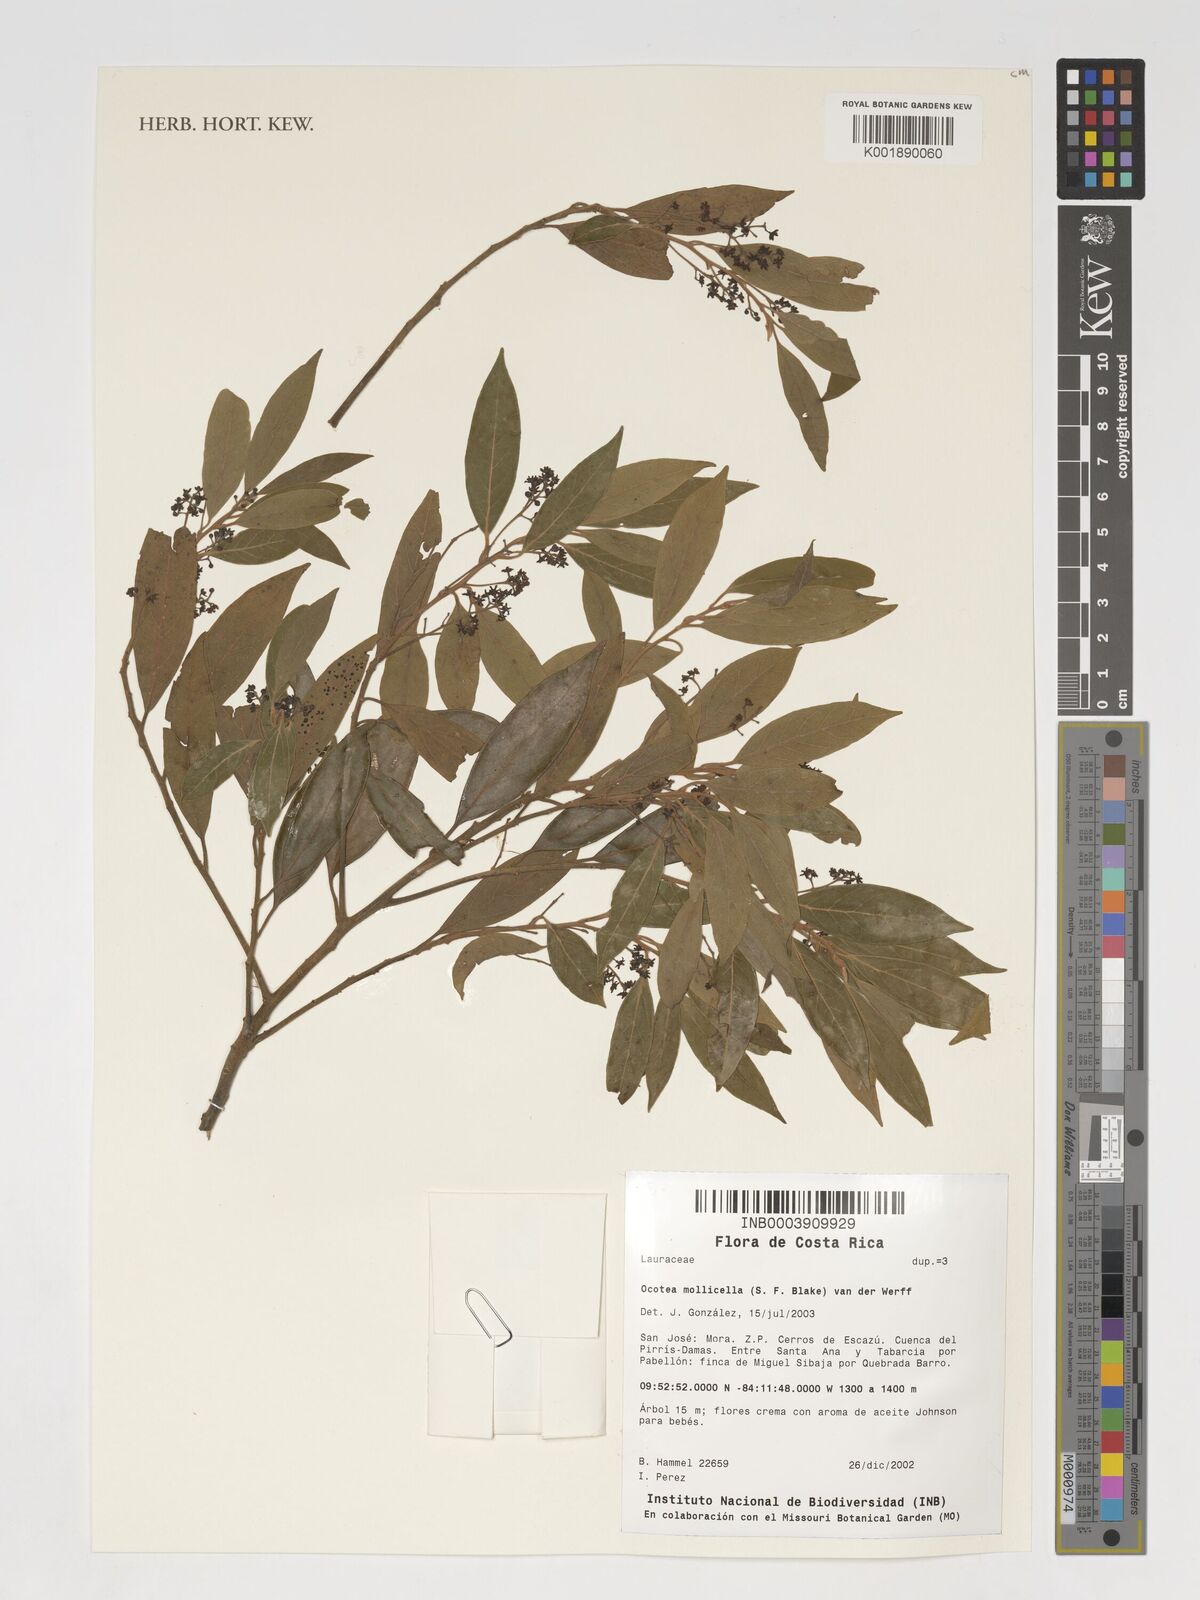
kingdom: Plantae
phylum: Tracheophyta
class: Magnoliopsida
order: Laurales
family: Lauraceae
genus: Ocotea
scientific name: Ocotea mollicella
